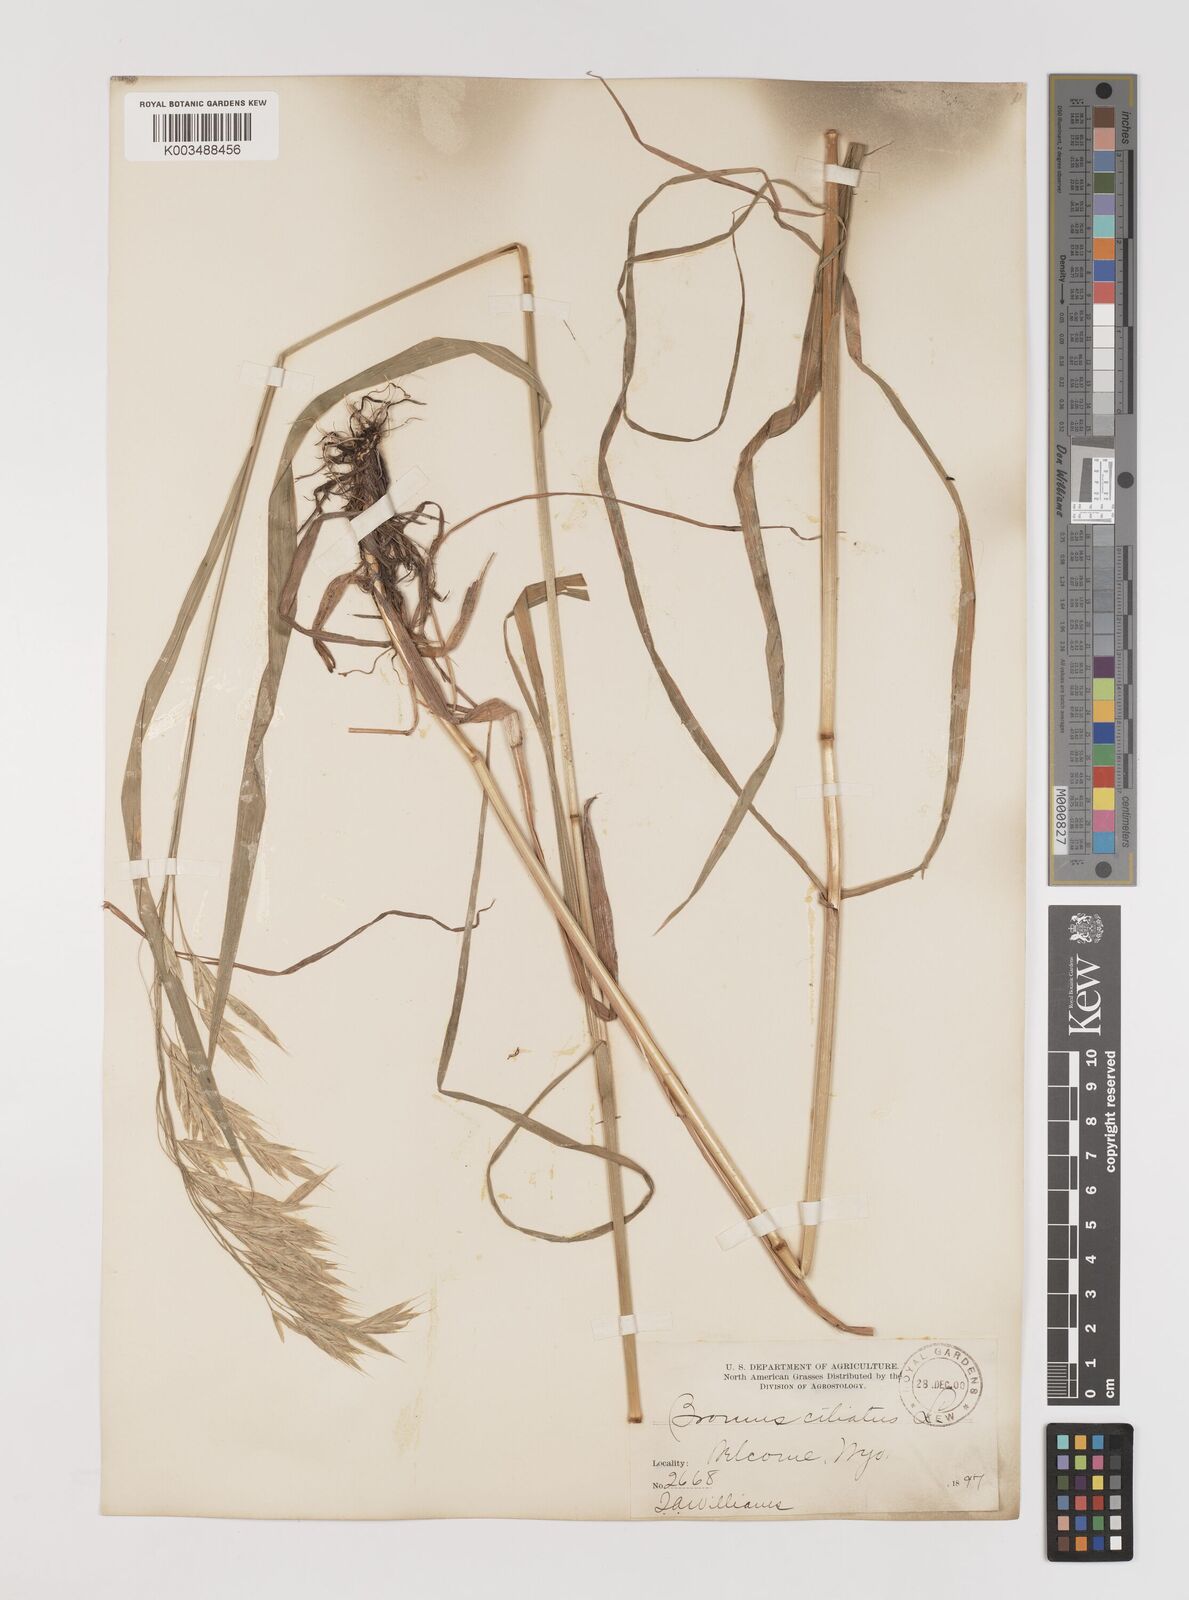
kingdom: Plantae
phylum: Tracheophyta
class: Liliopsida
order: Poales
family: Poaceae
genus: Bromus
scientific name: Bromus ciliatus
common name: Fringe brome
